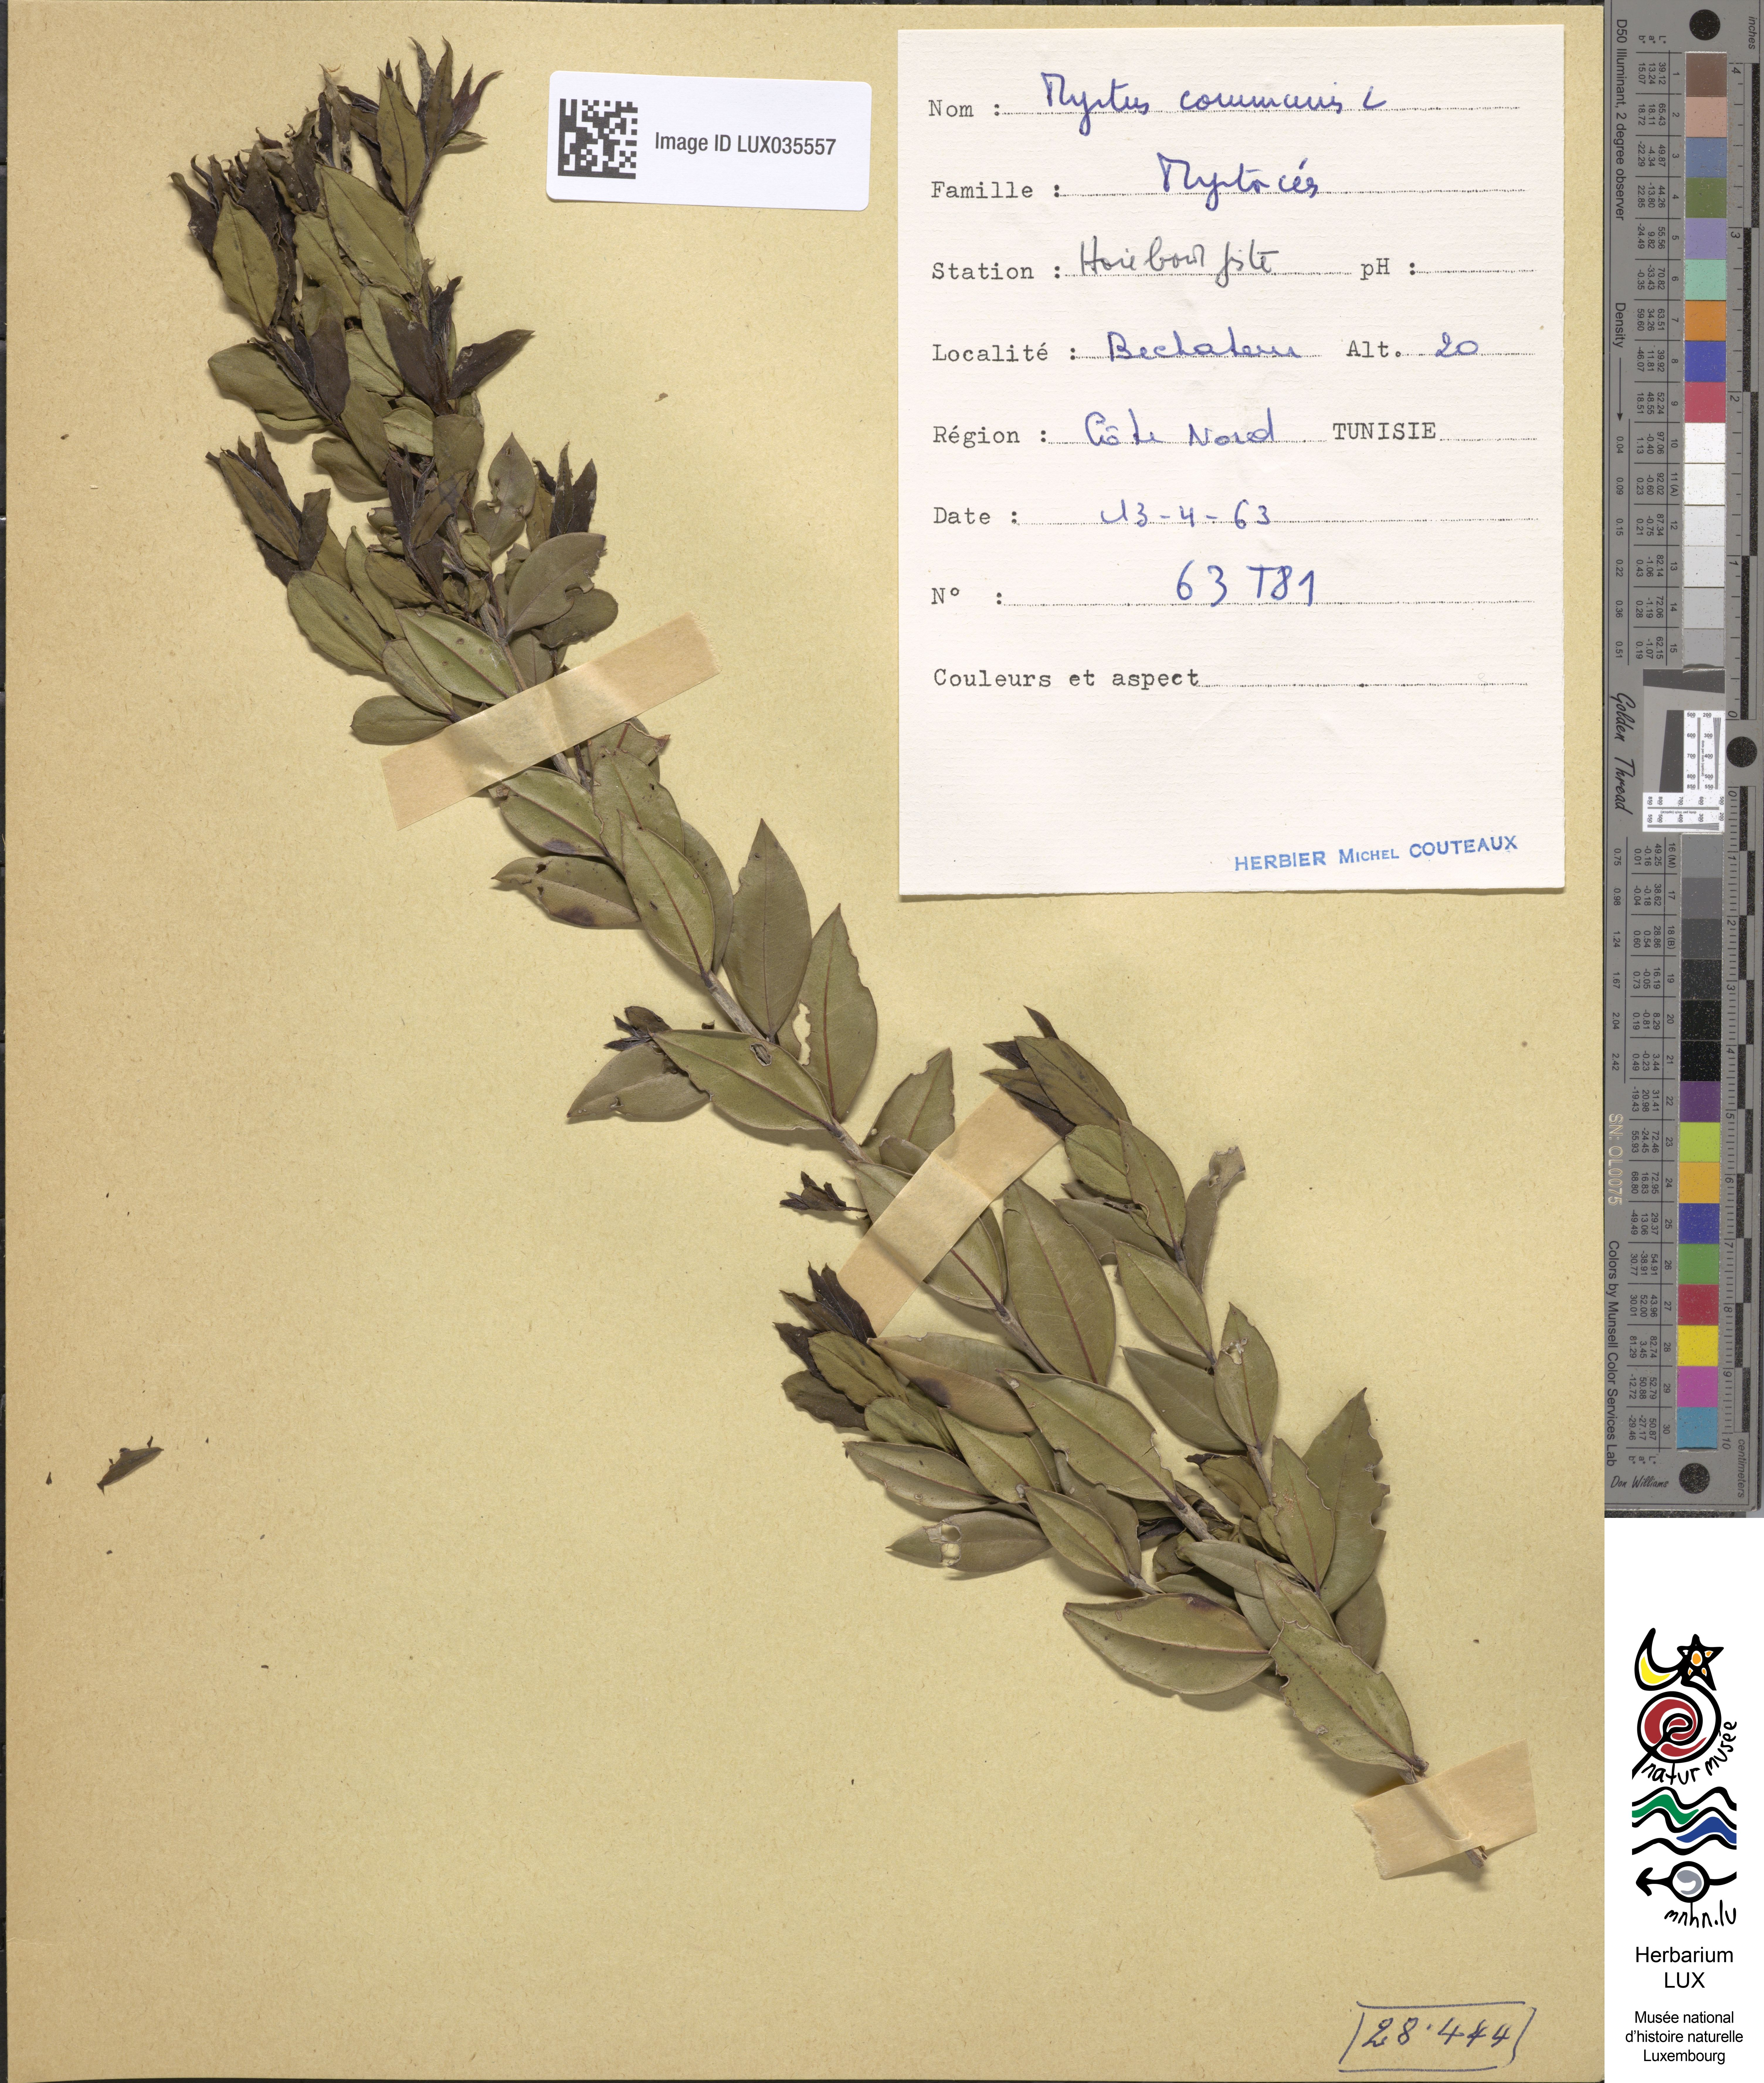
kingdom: Plantae
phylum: Tracheophyta
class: Magnoliopsida
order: Myrtales
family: Myrtaceae
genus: Myrtus
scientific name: Myrtus communis
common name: Myrtle
